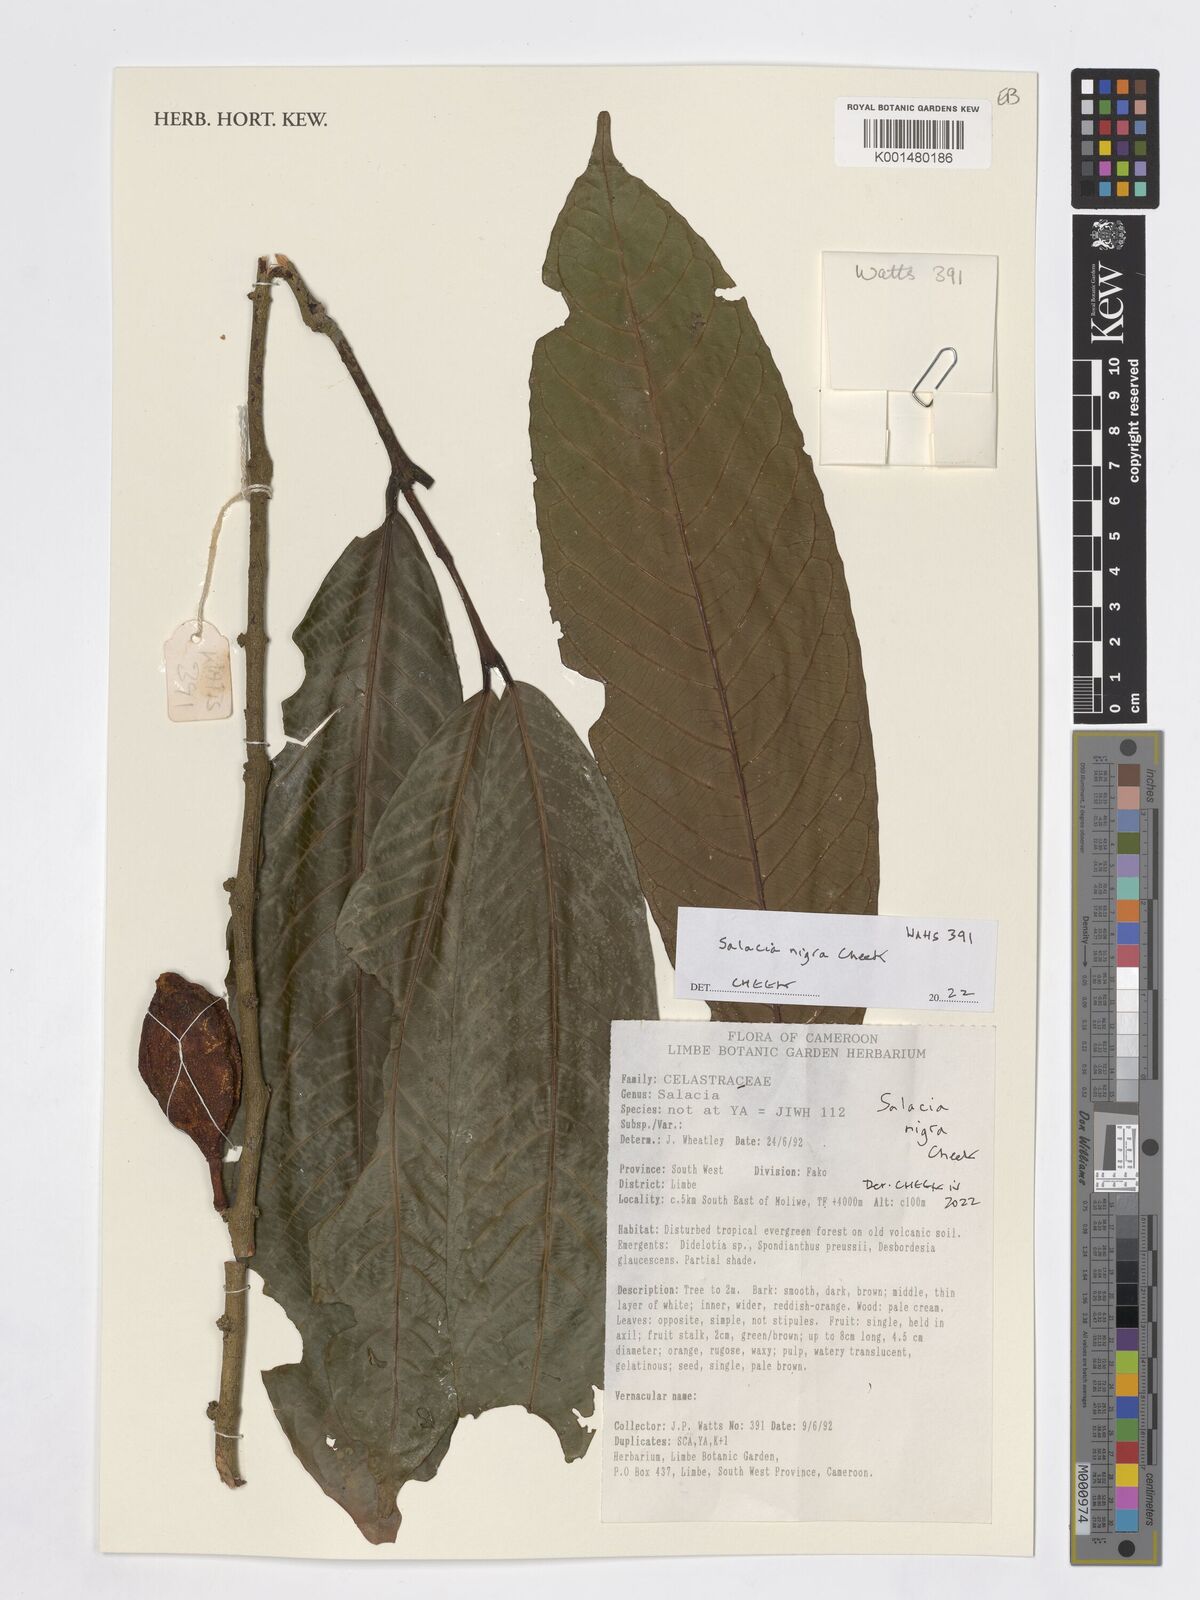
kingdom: Plantae
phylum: Tracheophyta
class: Magnoliopsida
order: Celastrales
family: Celastraceae
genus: Salacia
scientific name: Salacia nigra
